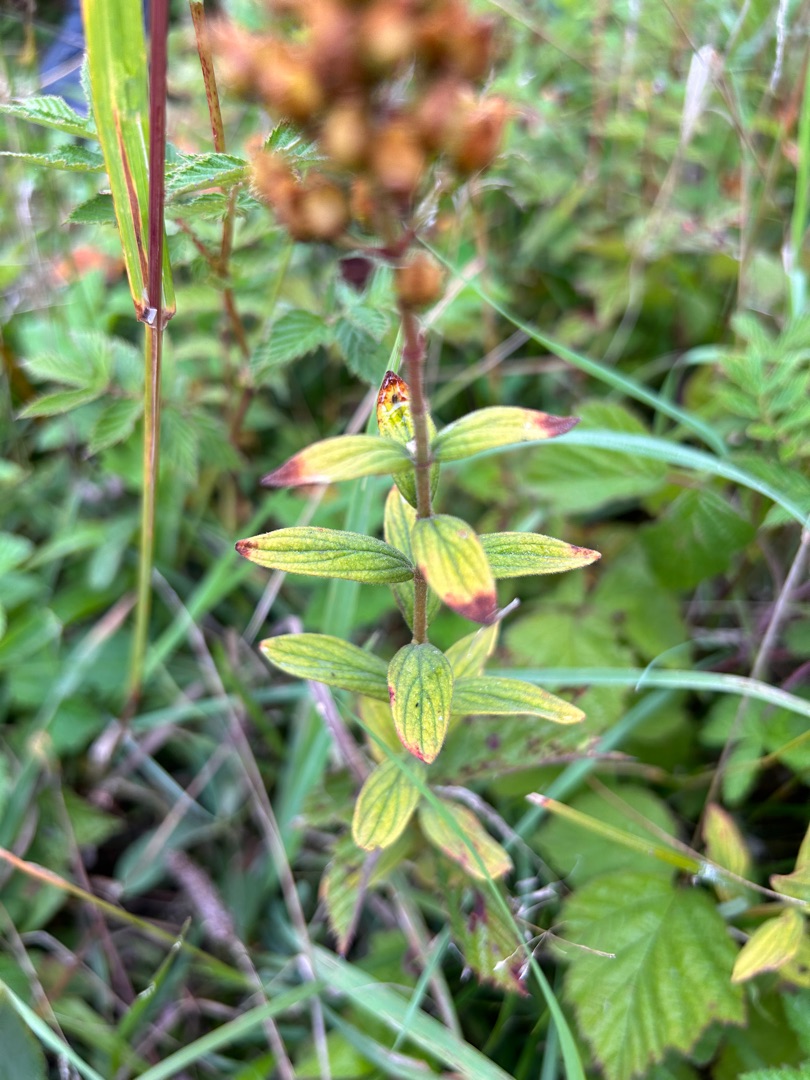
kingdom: Plantae
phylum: Tracheophyta
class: Magnoliopsida
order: Malpighiales
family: Hypericaceae
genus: Hypericum
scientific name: Hypericum hirsutum
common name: Lådden perikon
